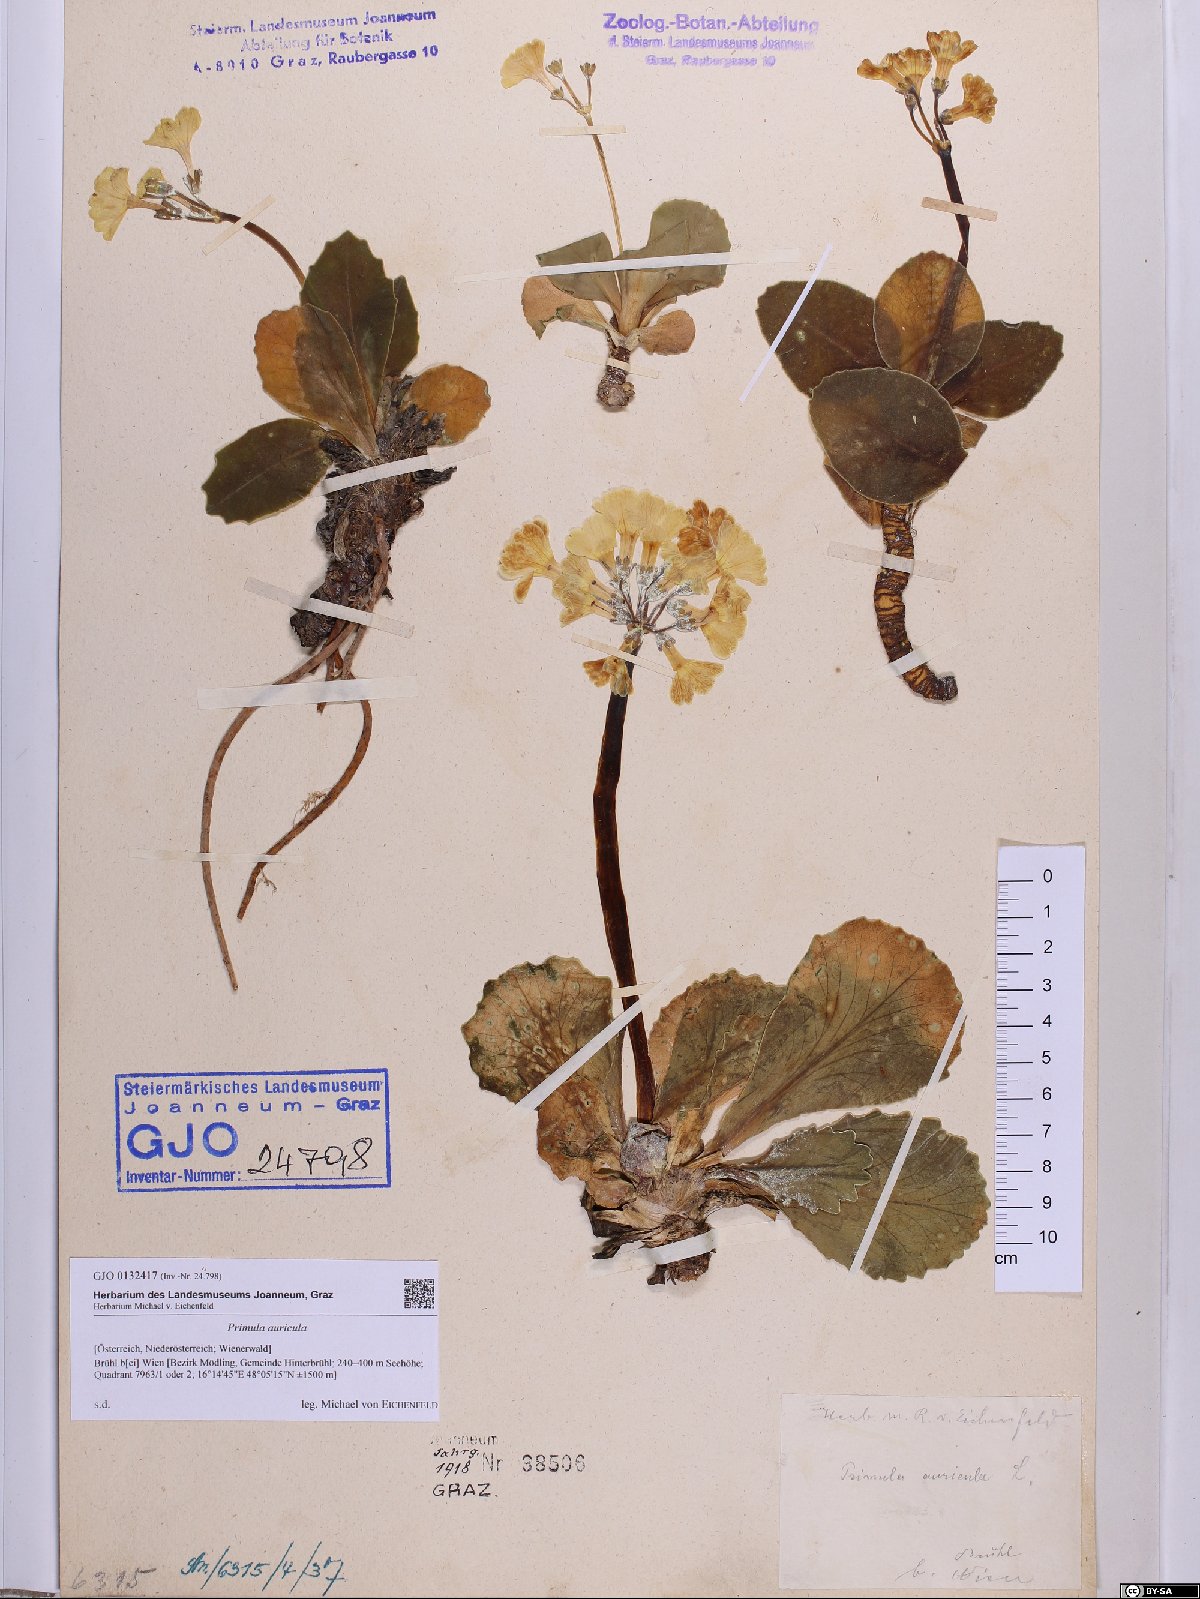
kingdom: Plantae
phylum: Tracheophyta
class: Magnoliopsida
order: Ericales
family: Primulaceae
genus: Primula
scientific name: Primula auricula
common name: Auricula
